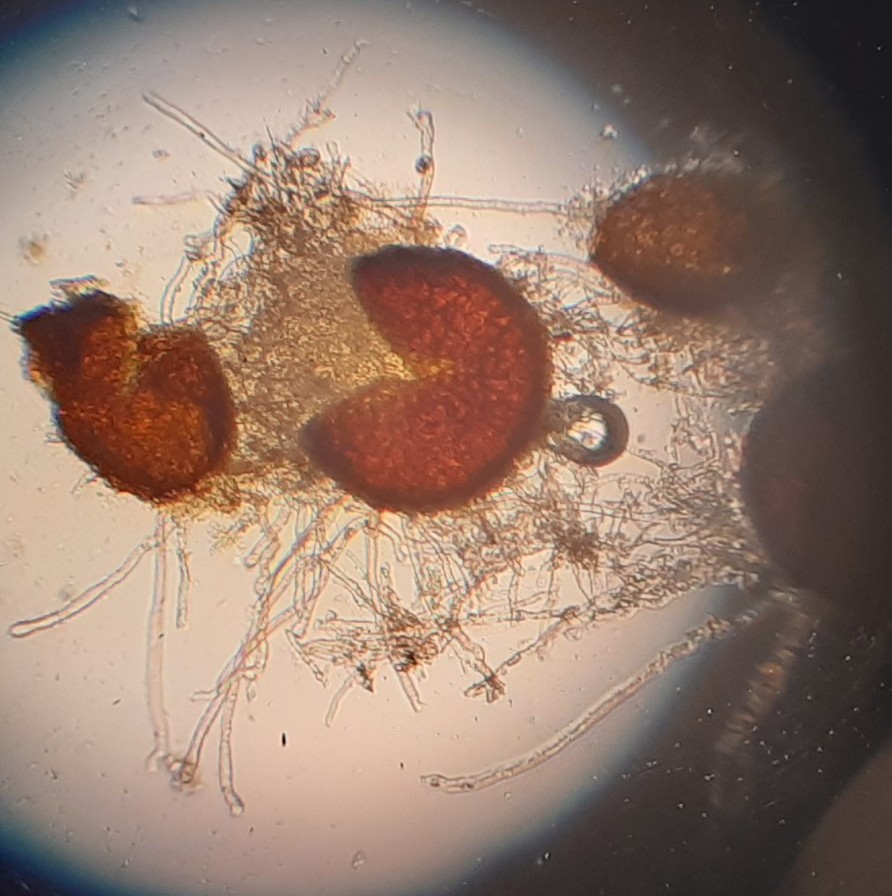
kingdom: Fungi
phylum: Ascomycota
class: Leotiomycetes
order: Helotiales
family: Erysiphaceae
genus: Erysiphe
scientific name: Erysiphe pisi
